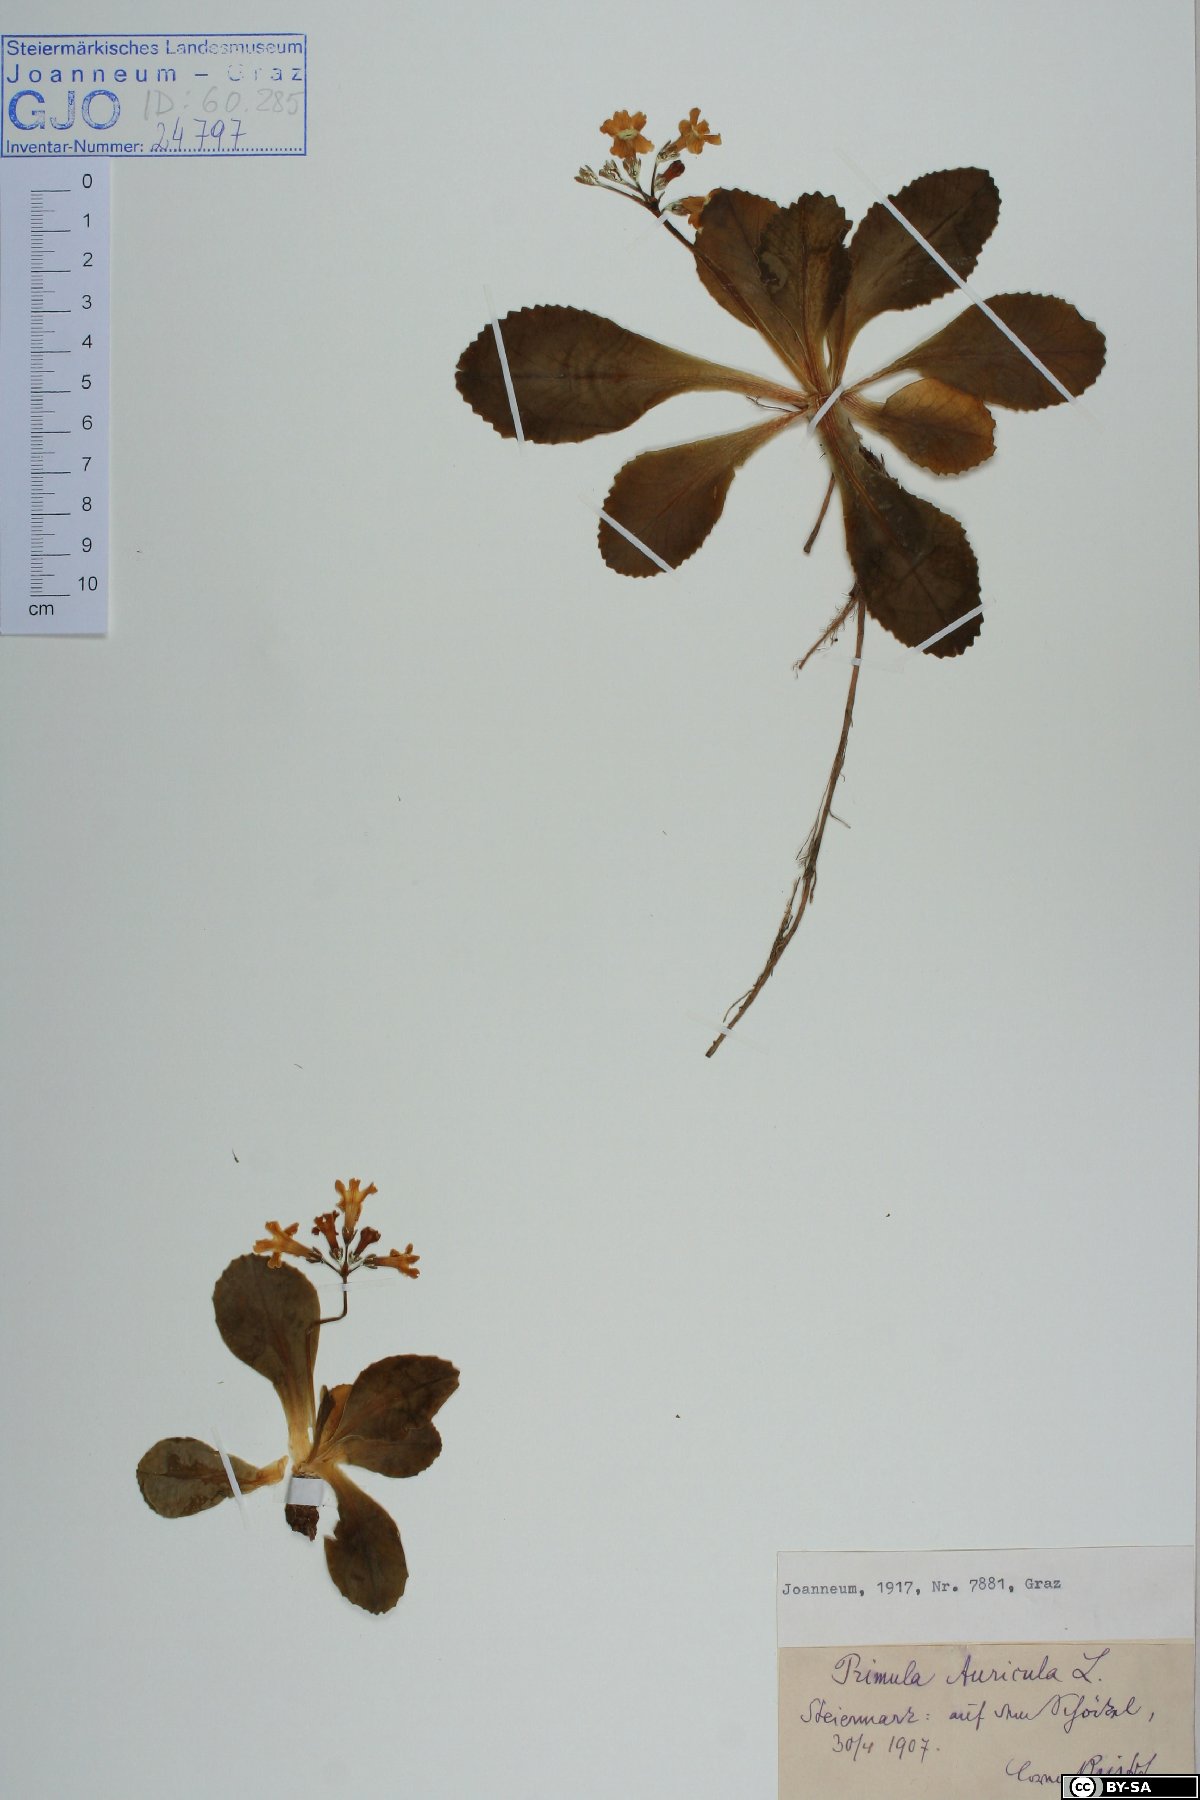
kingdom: Plantae
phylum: Tracheophyta
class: Magnoliopsida
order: Ericales
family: Primulaceae
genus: Primula
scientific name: Primula auricula
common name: Auricula
